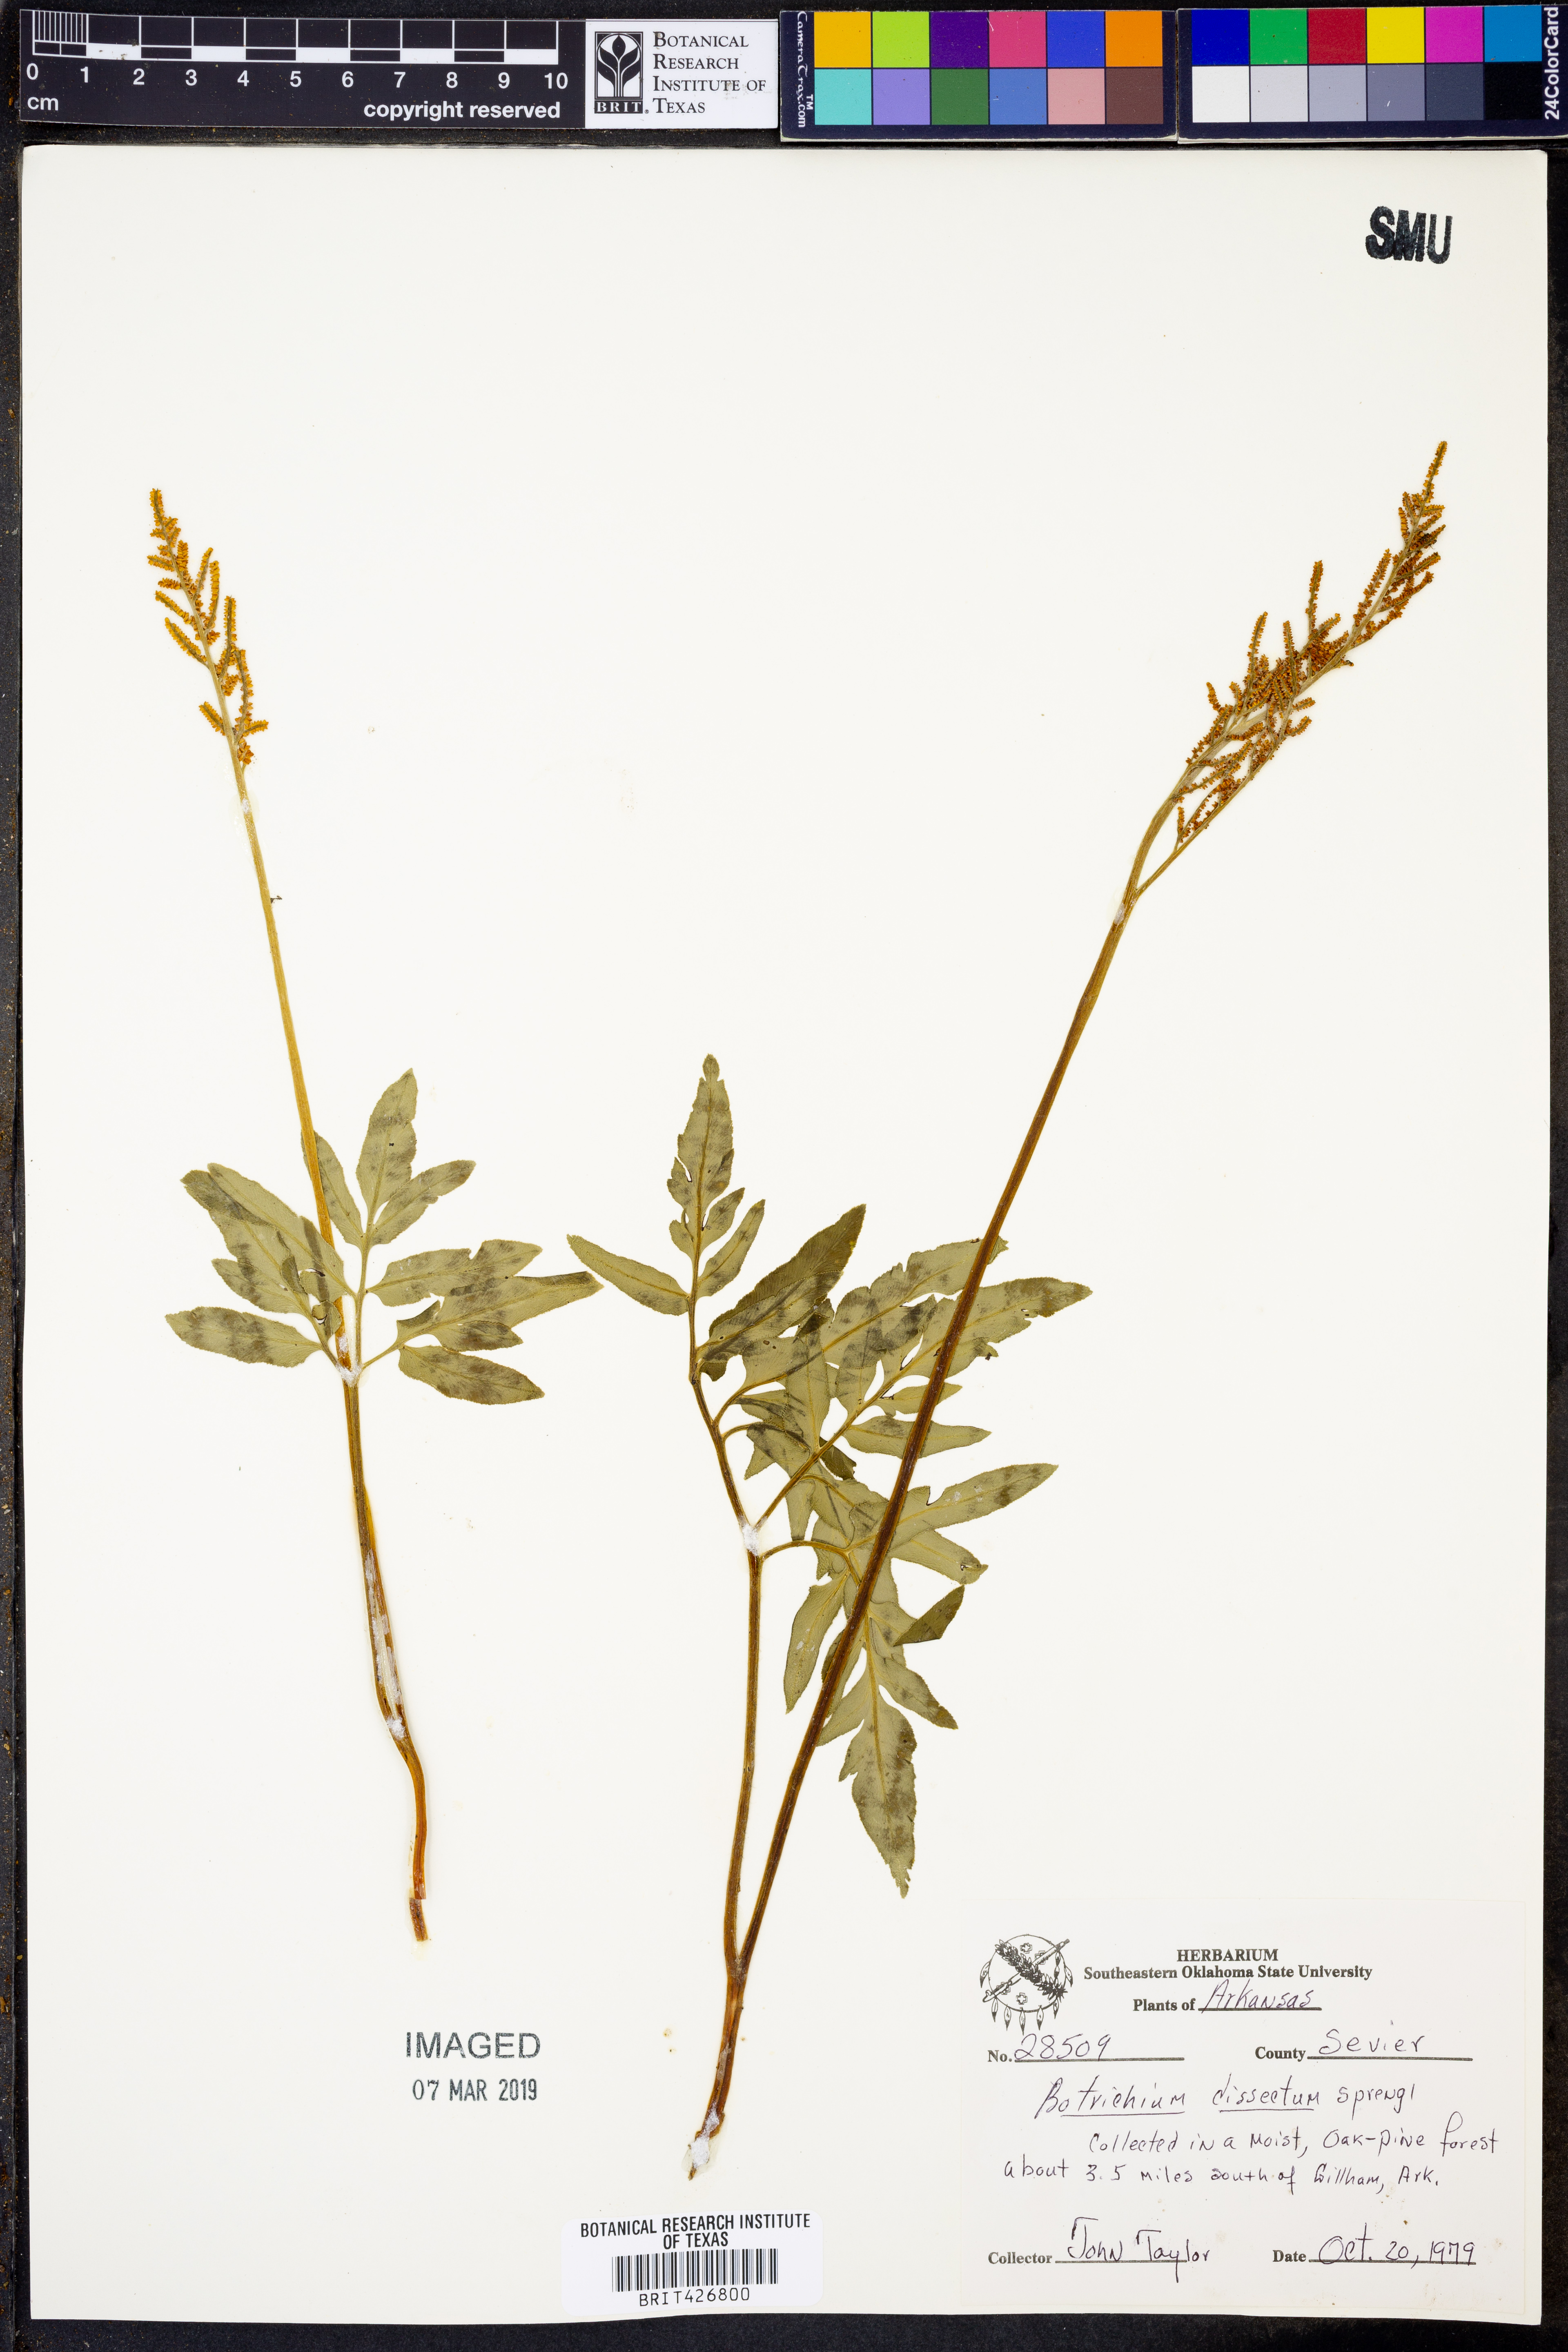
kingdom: Plantae
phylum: Tracheophyta
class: Polypodiopsida
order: Ophioglossales
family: Ophioglossaceae
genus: Sceptridium
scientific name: Sceptridium dissectum
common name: Cut-leaved grapefern
